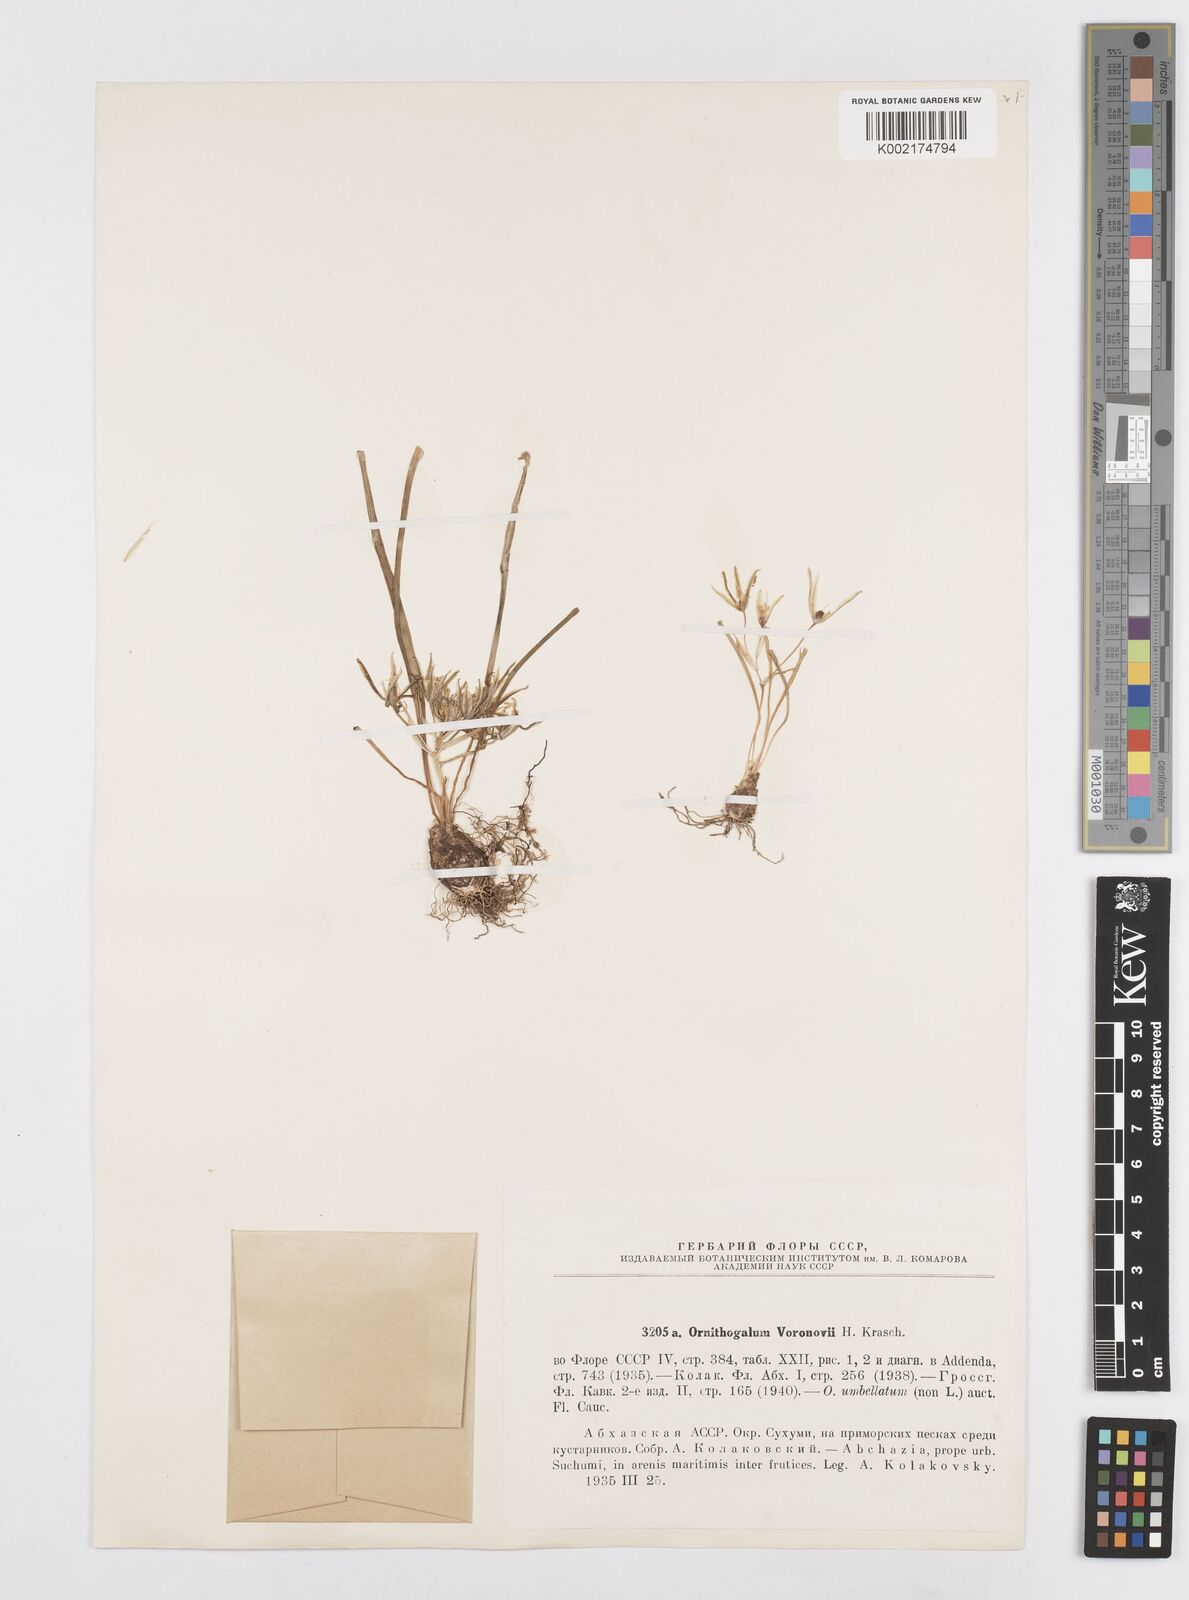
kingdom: Plantae
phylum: Tracheophyta
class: Liliopsida
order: Asparagales
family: Asparagaceae
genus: Ornithogalum
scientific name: Ornithogalum woronowii
